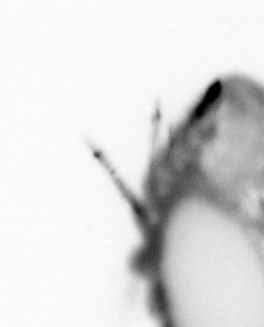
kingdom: Animalia
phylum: Annelida
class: Polychaeta
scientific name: Polychaeta
